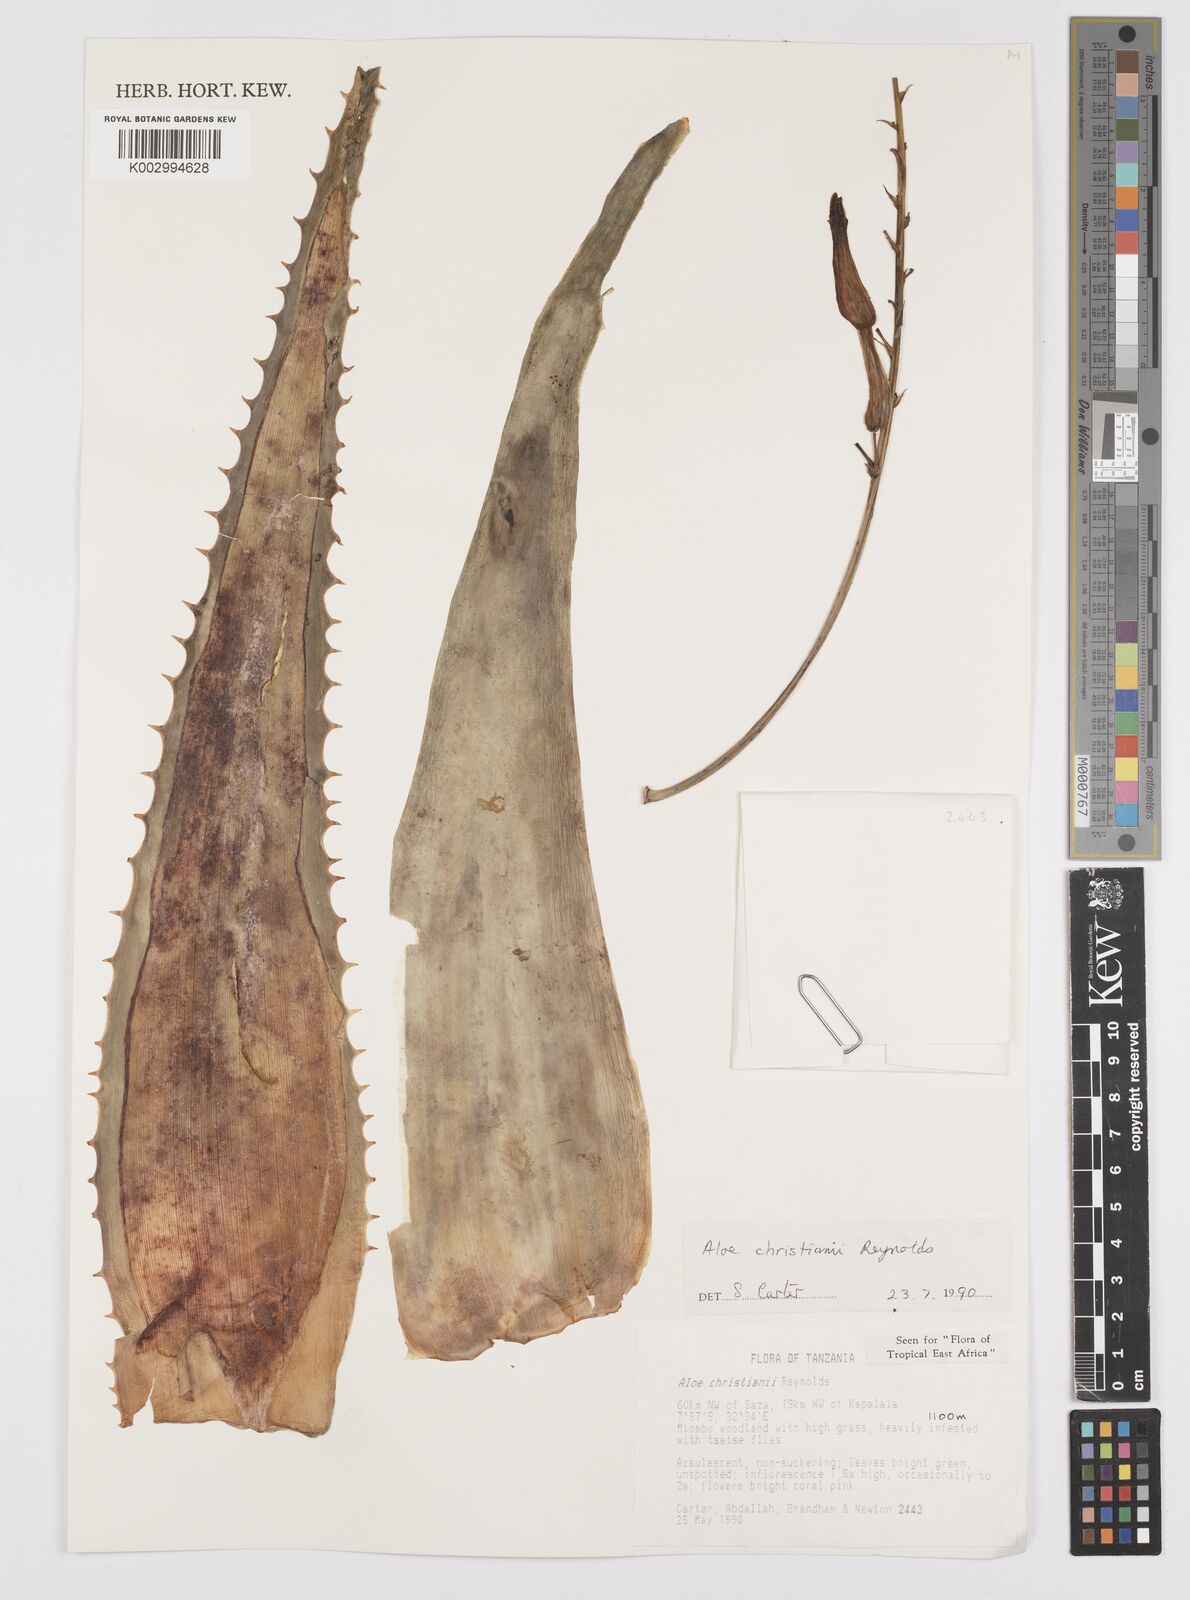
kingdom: Plantae
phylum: Tracheophyta
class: Liliopsida
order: Asparagales
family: Asphodelaceae
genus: Aloe
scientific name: Aloe christianii
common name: Basil christian's aloe
